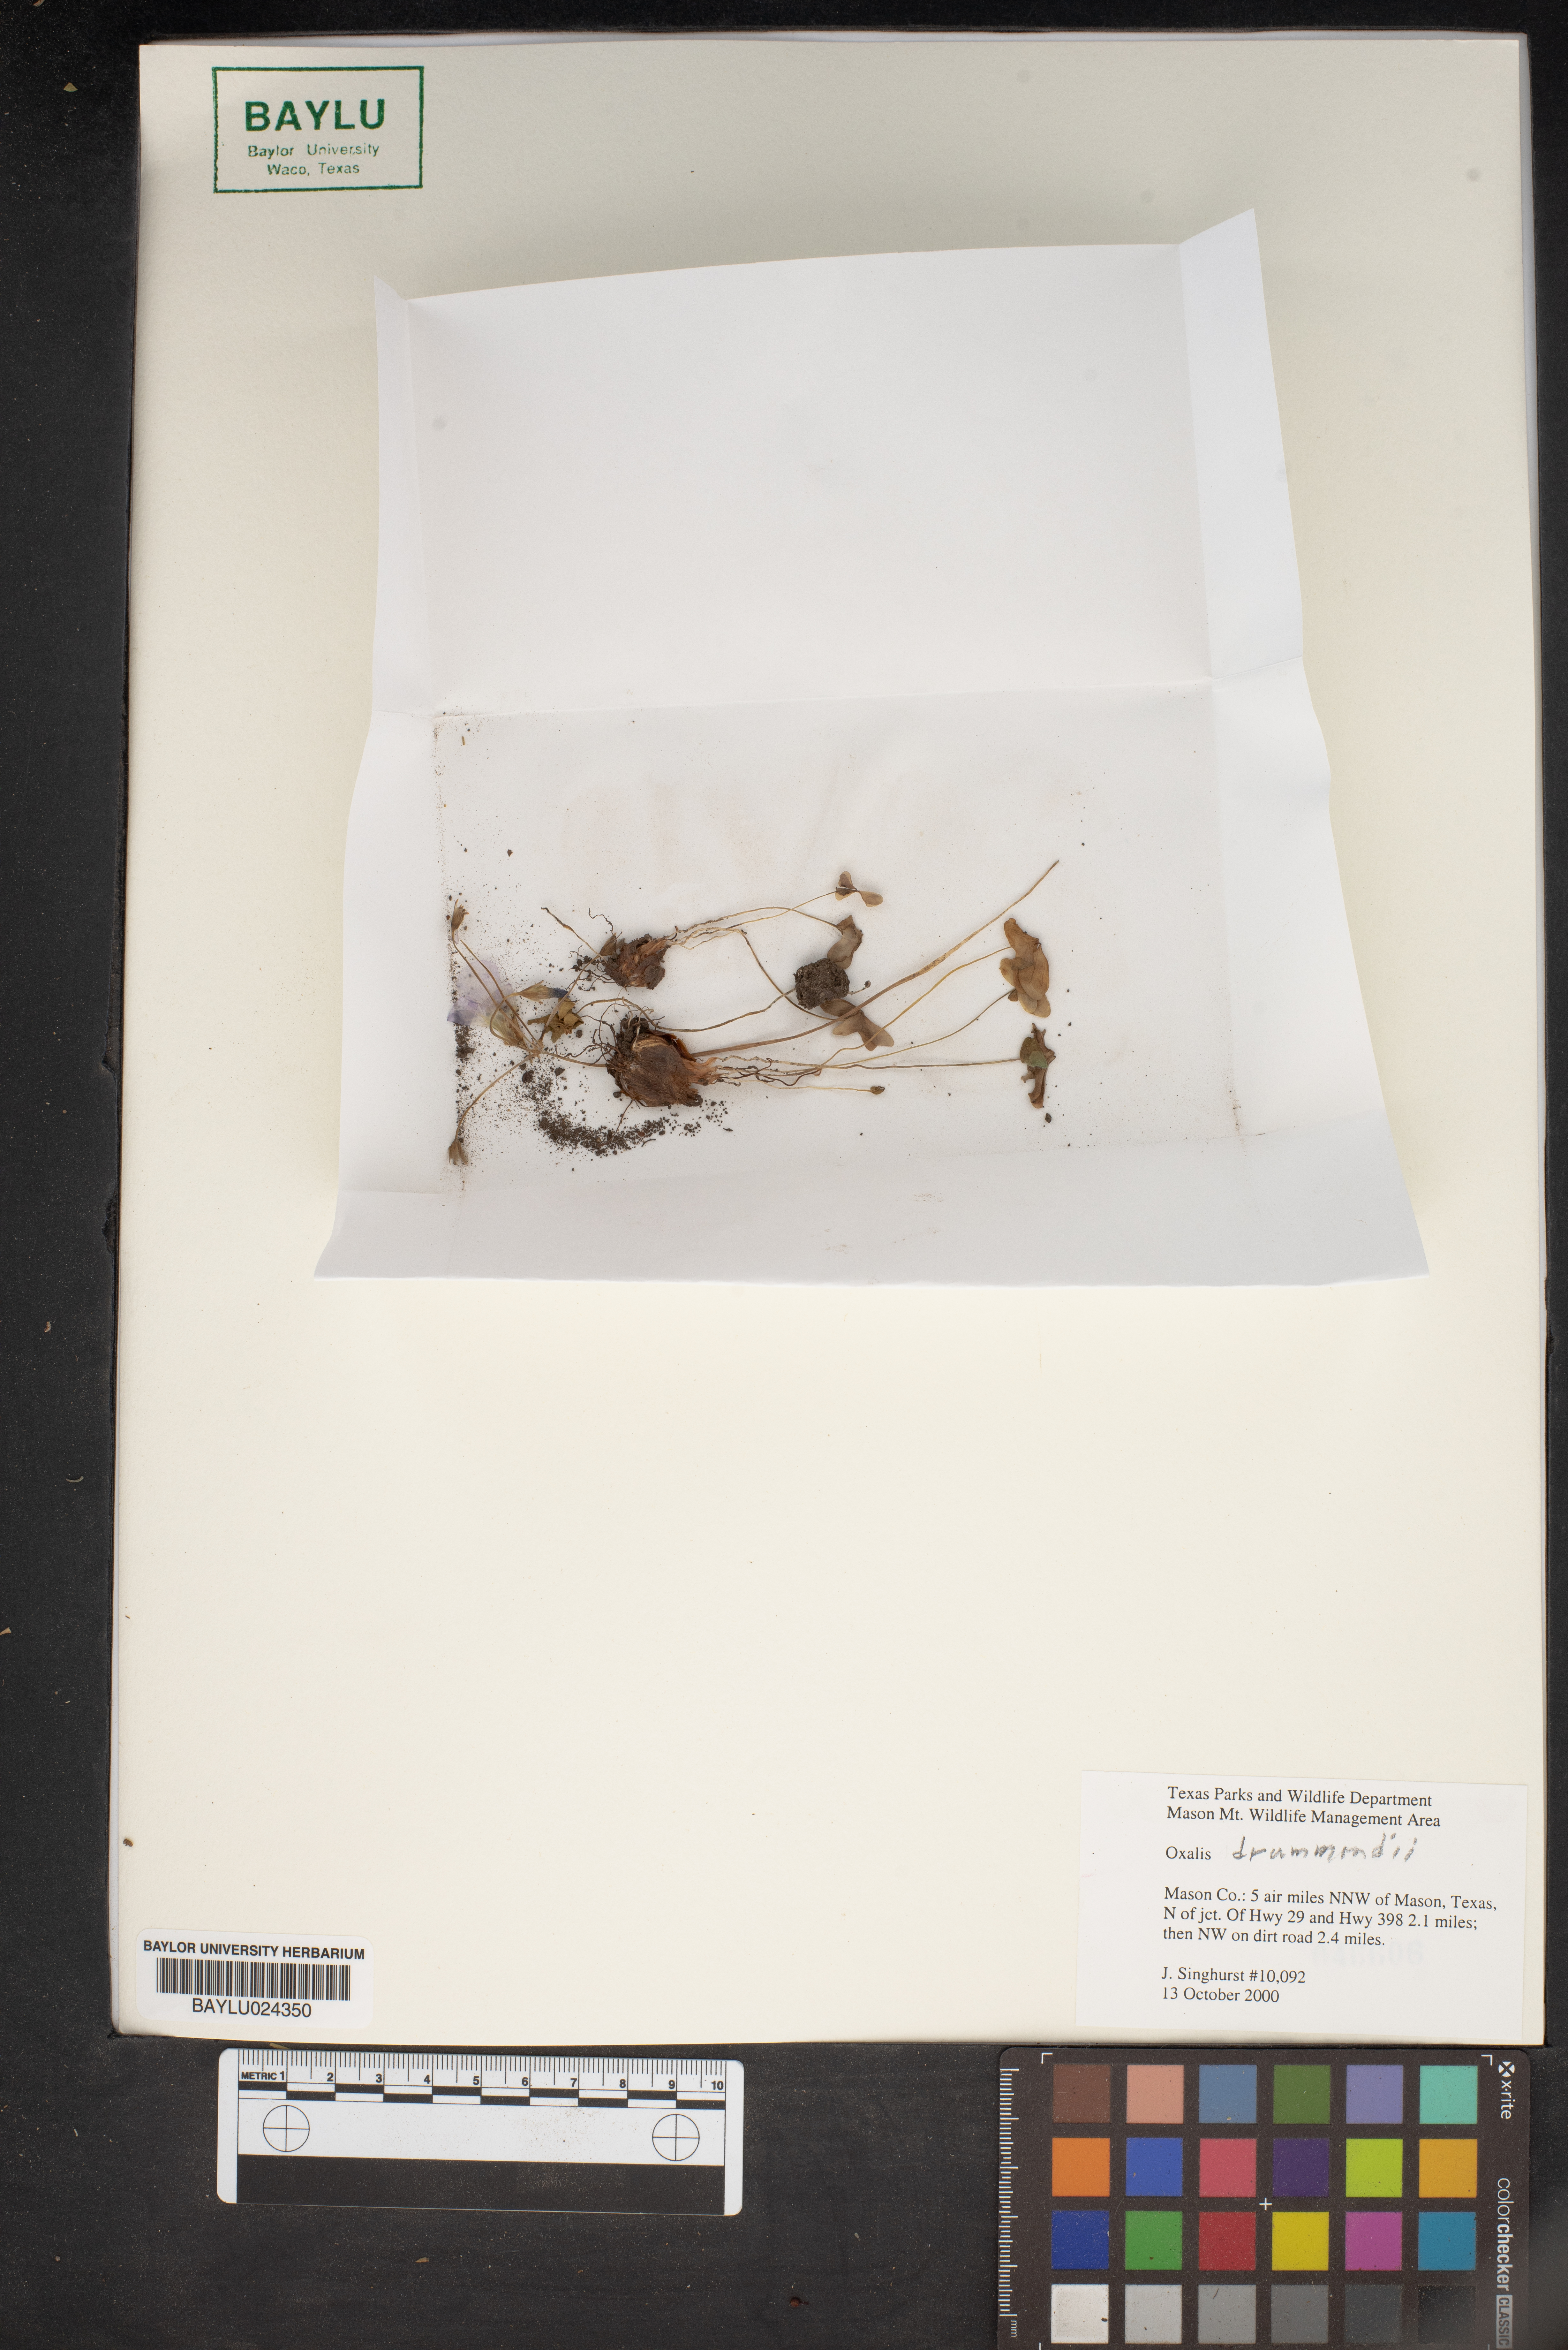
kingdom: Plantae
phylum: Tracheophyta
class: Magnoliopsida
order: Oxalidales
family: Oxalidaceae
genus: Oxalis
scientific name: Oxalis drummondii
